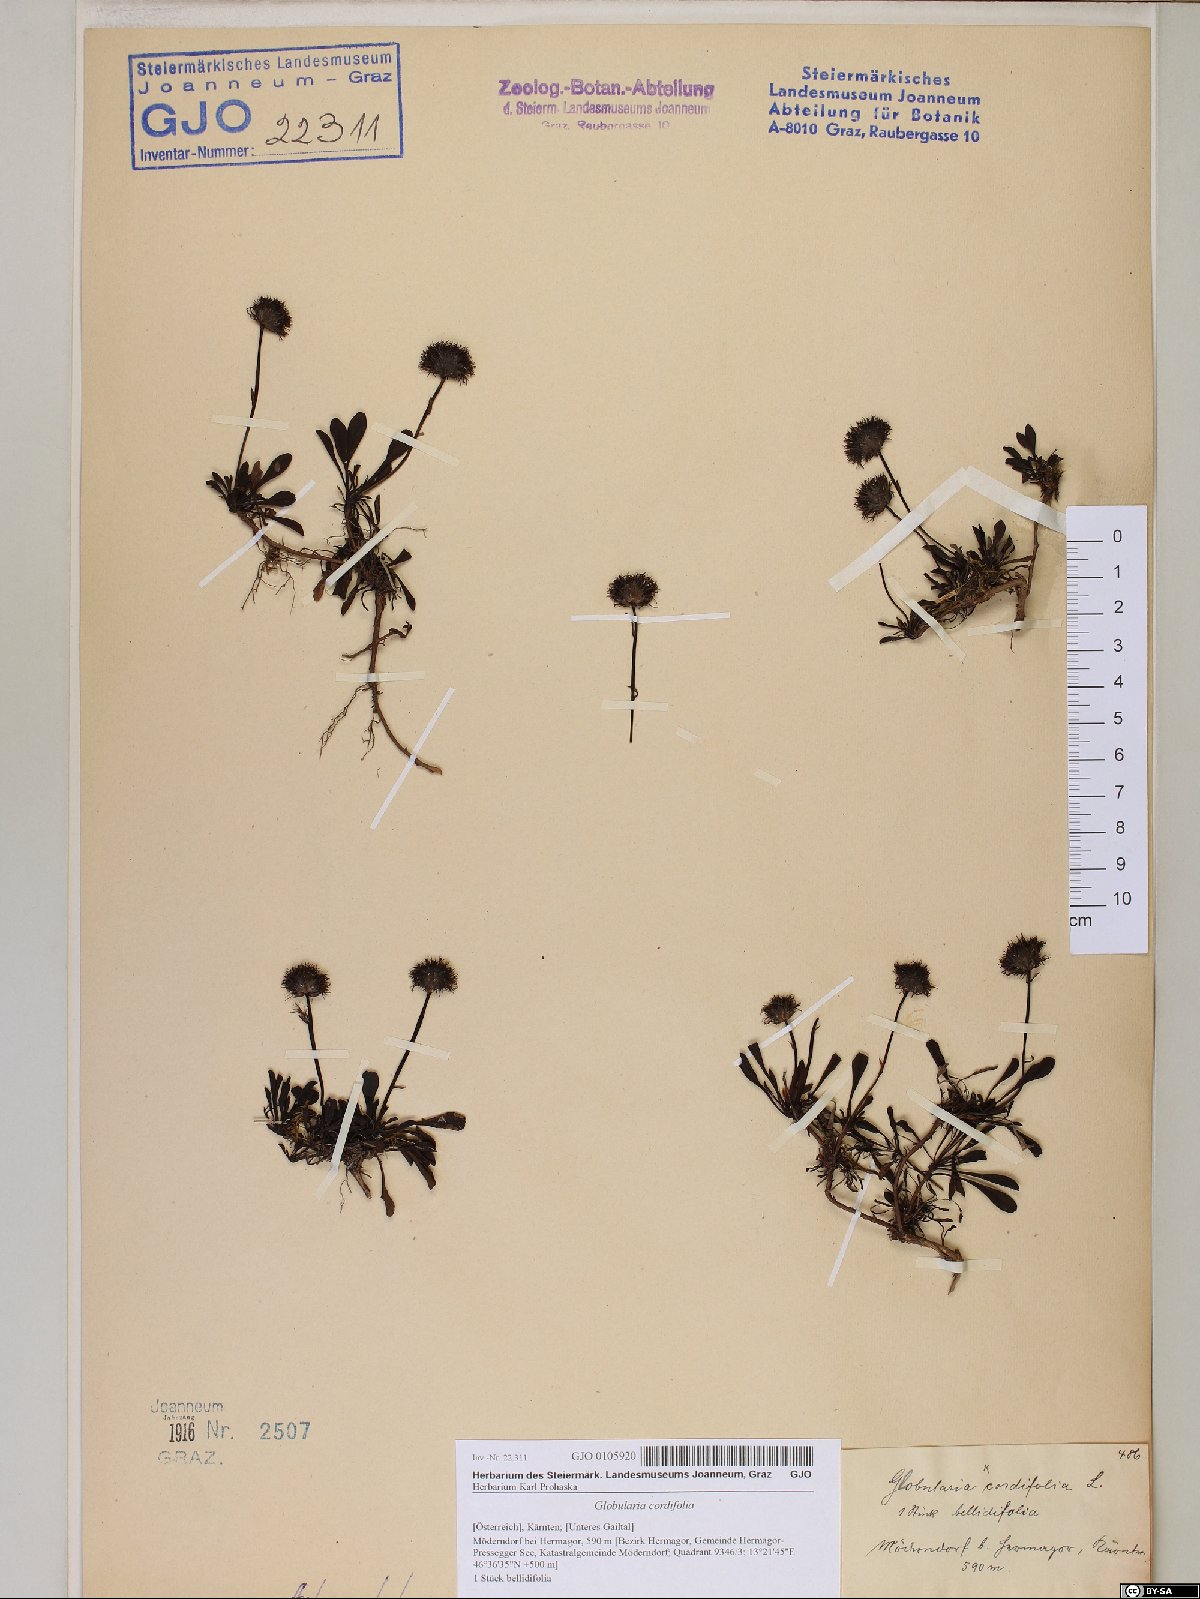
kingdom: Plantae
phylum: Tracheophyta
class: Magnoliopsida
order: Lamiales
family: Plantaginaceae
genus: Globularia
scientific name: Globularia cordifolia
